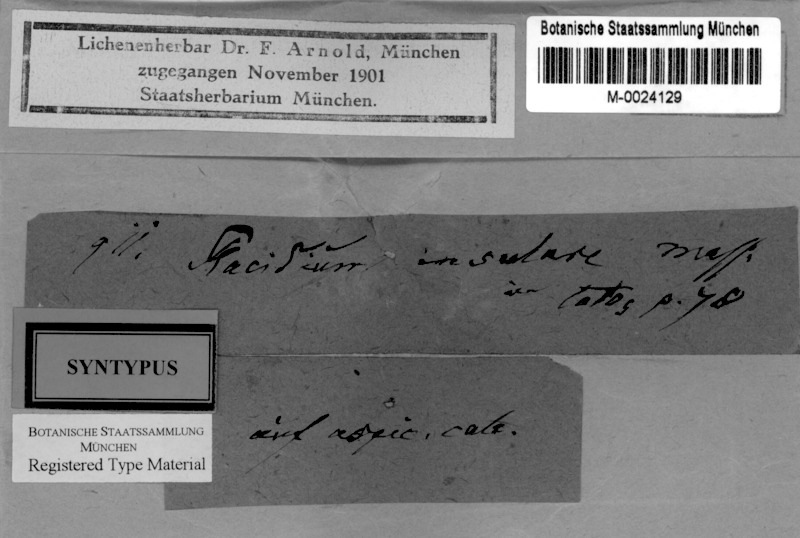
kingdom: Fungi
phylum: Ascomycota
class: Eurotiomycetes
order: Verrucariales
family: Verrucariaceae
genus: Heteroplacidium
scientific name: Heteroplacidium fusculum
